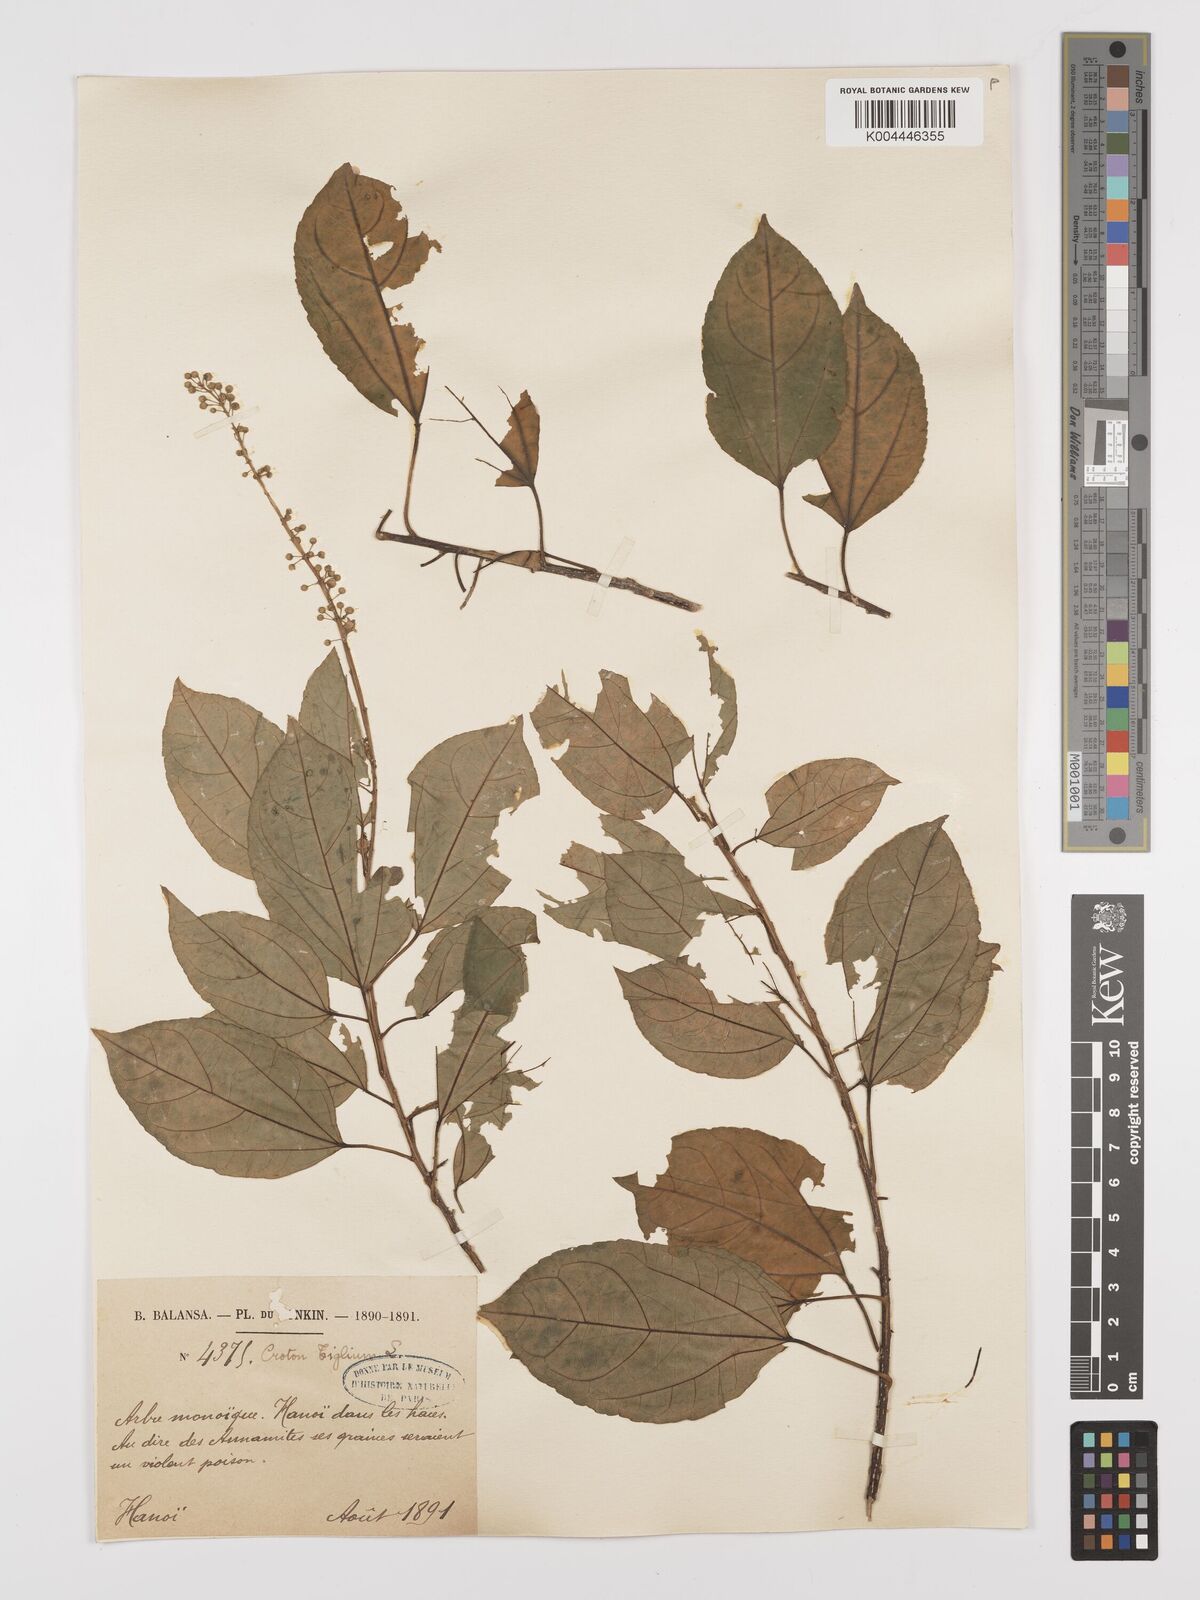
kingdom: Plantae
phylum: Tracheophyta
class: Magnoliopsida
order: Malpighiales
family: Euphorbiaceae
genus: Croton
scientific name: Croton tiglium
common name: Purging croton
